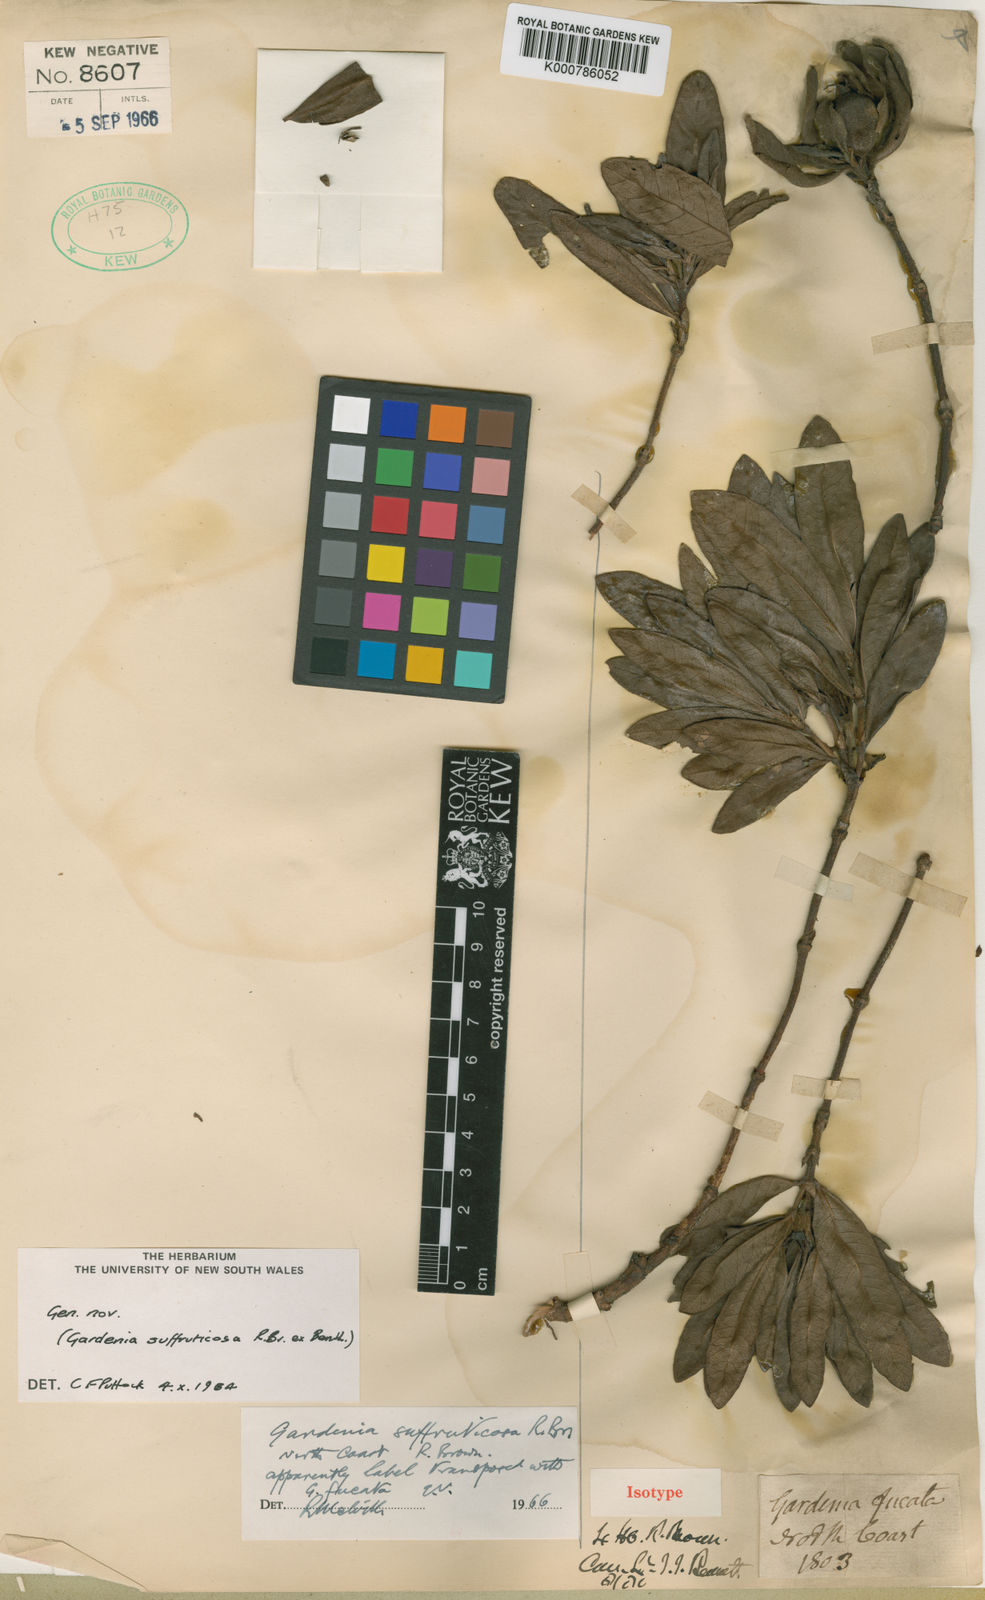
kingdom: Plantae
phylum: Tracheophyta
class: Magnoliopsida
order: Gentianales
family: Rubiaceae
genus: Larsenaikia
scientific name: Larsenaikia
